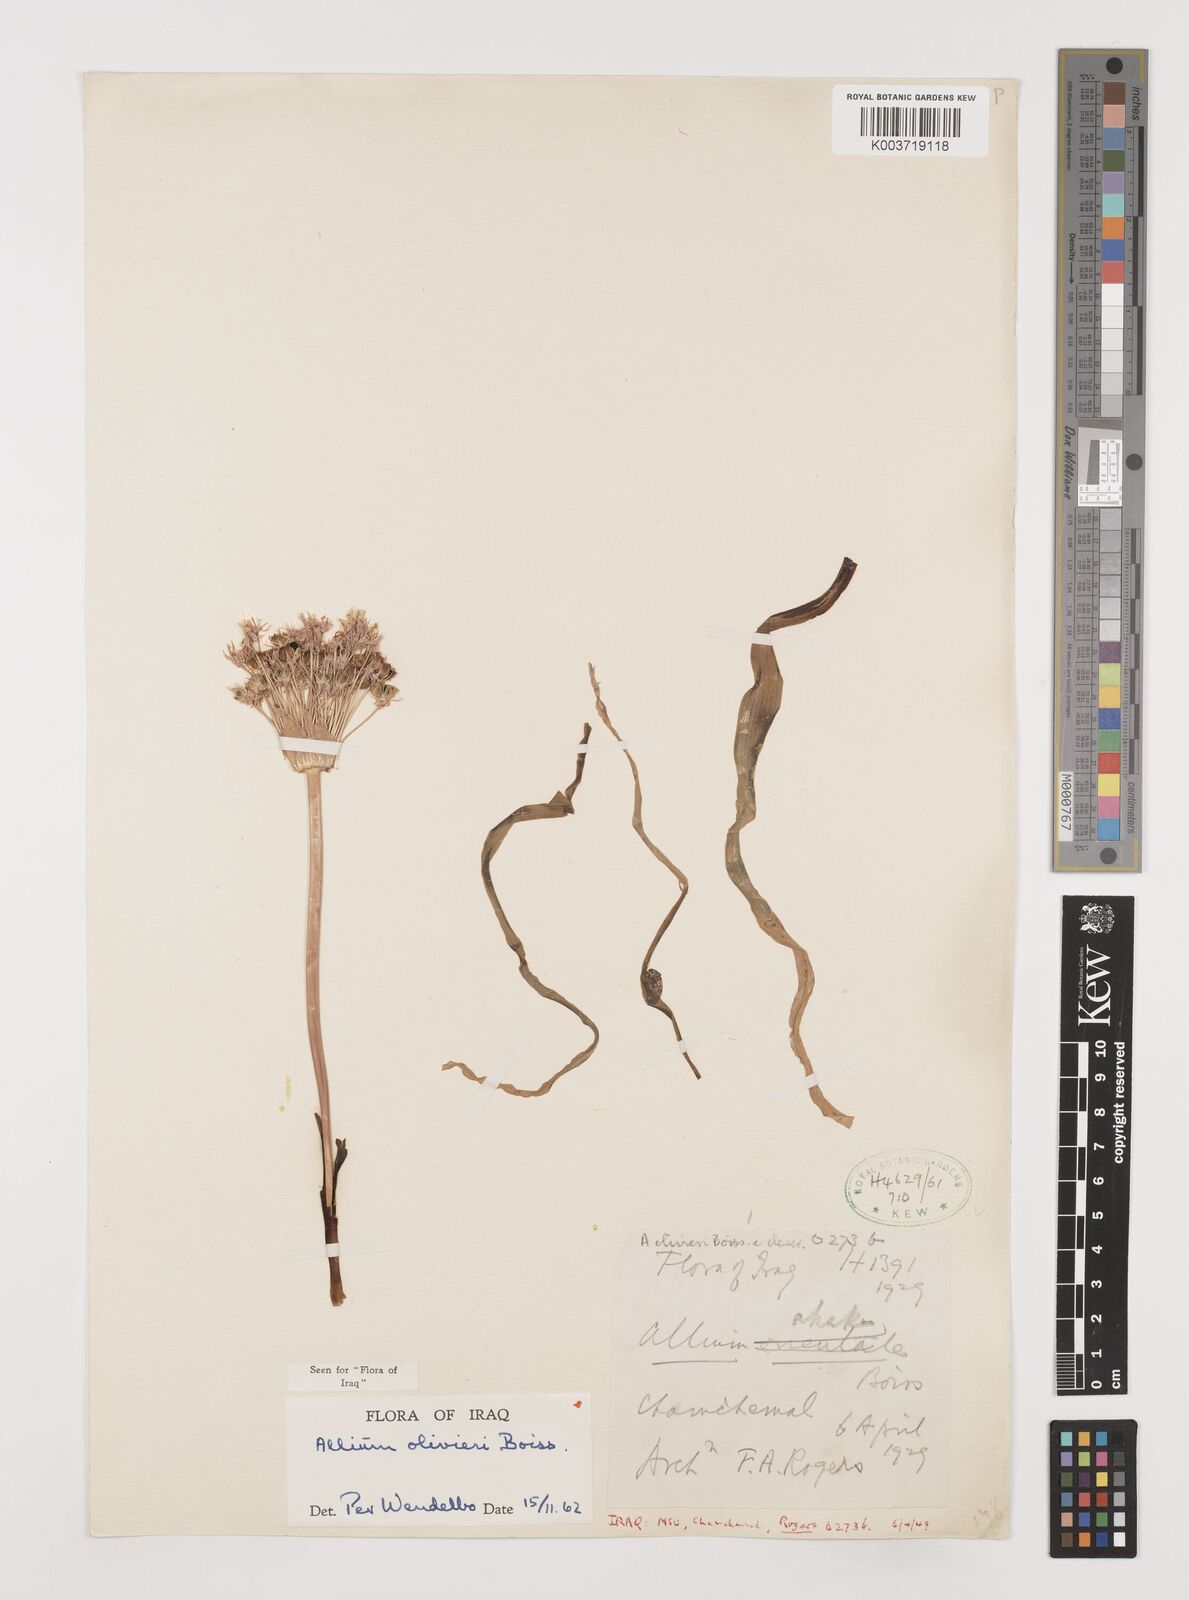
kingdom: Plantae
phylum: Tracheophyta
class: Liliopsida
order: Asparagales
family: Amaryllidaceae
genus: Allium
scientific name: Allium olivieri
